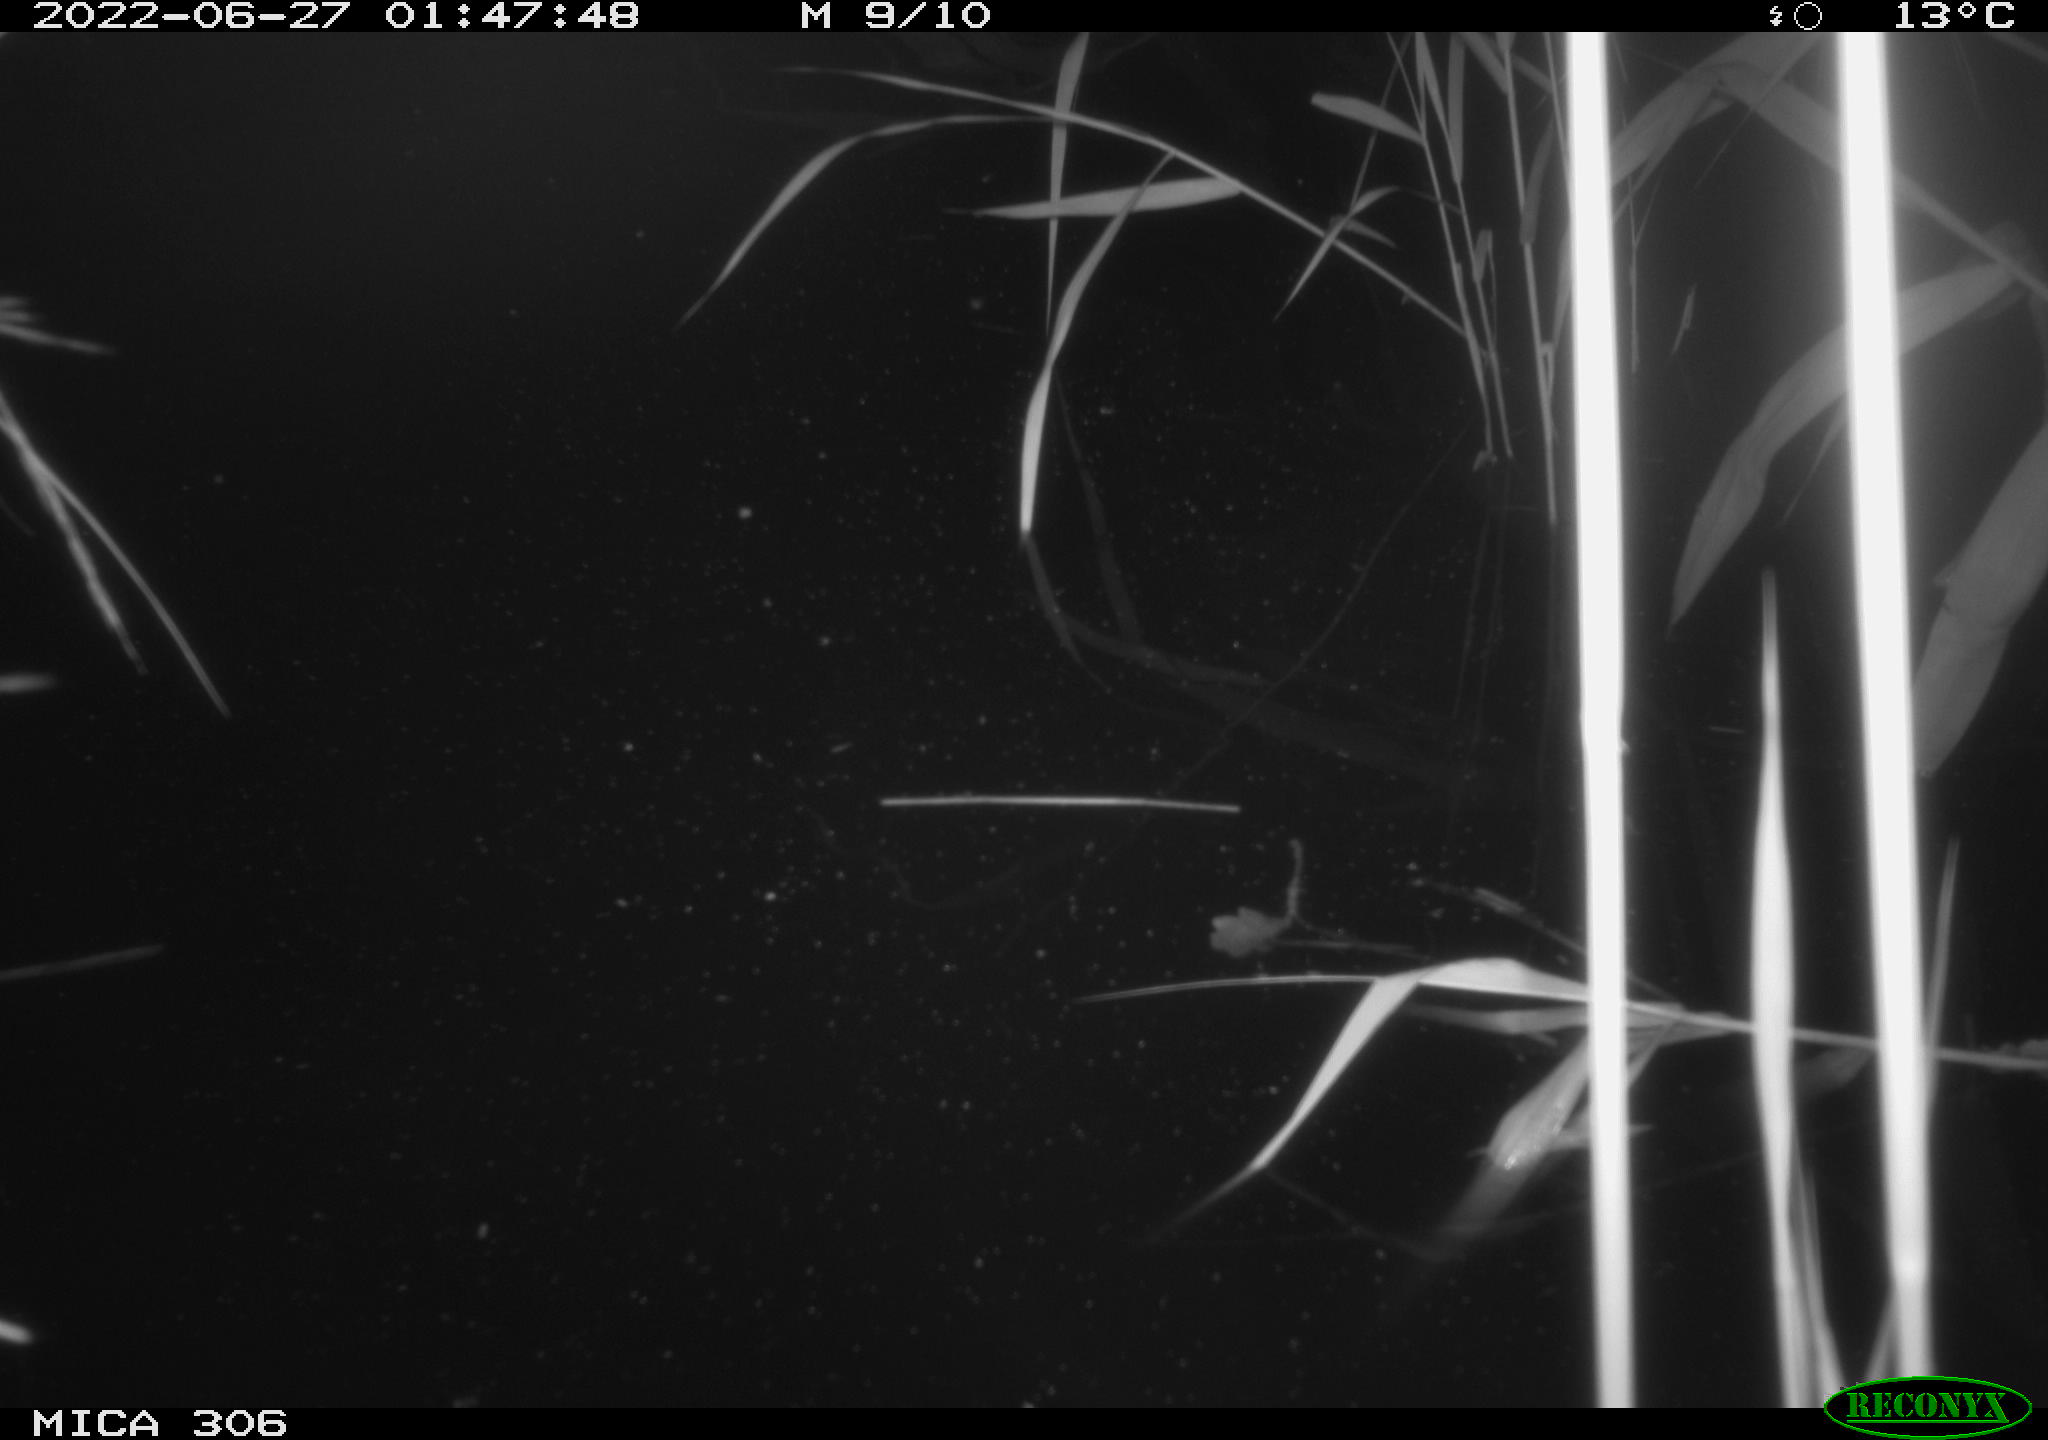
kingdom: Animalia
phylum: Chordata
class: Mammalia
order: Rodentia
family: Cricetidae
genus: Ondatra
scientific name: Ondatra zibethicus
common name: Muskrat
